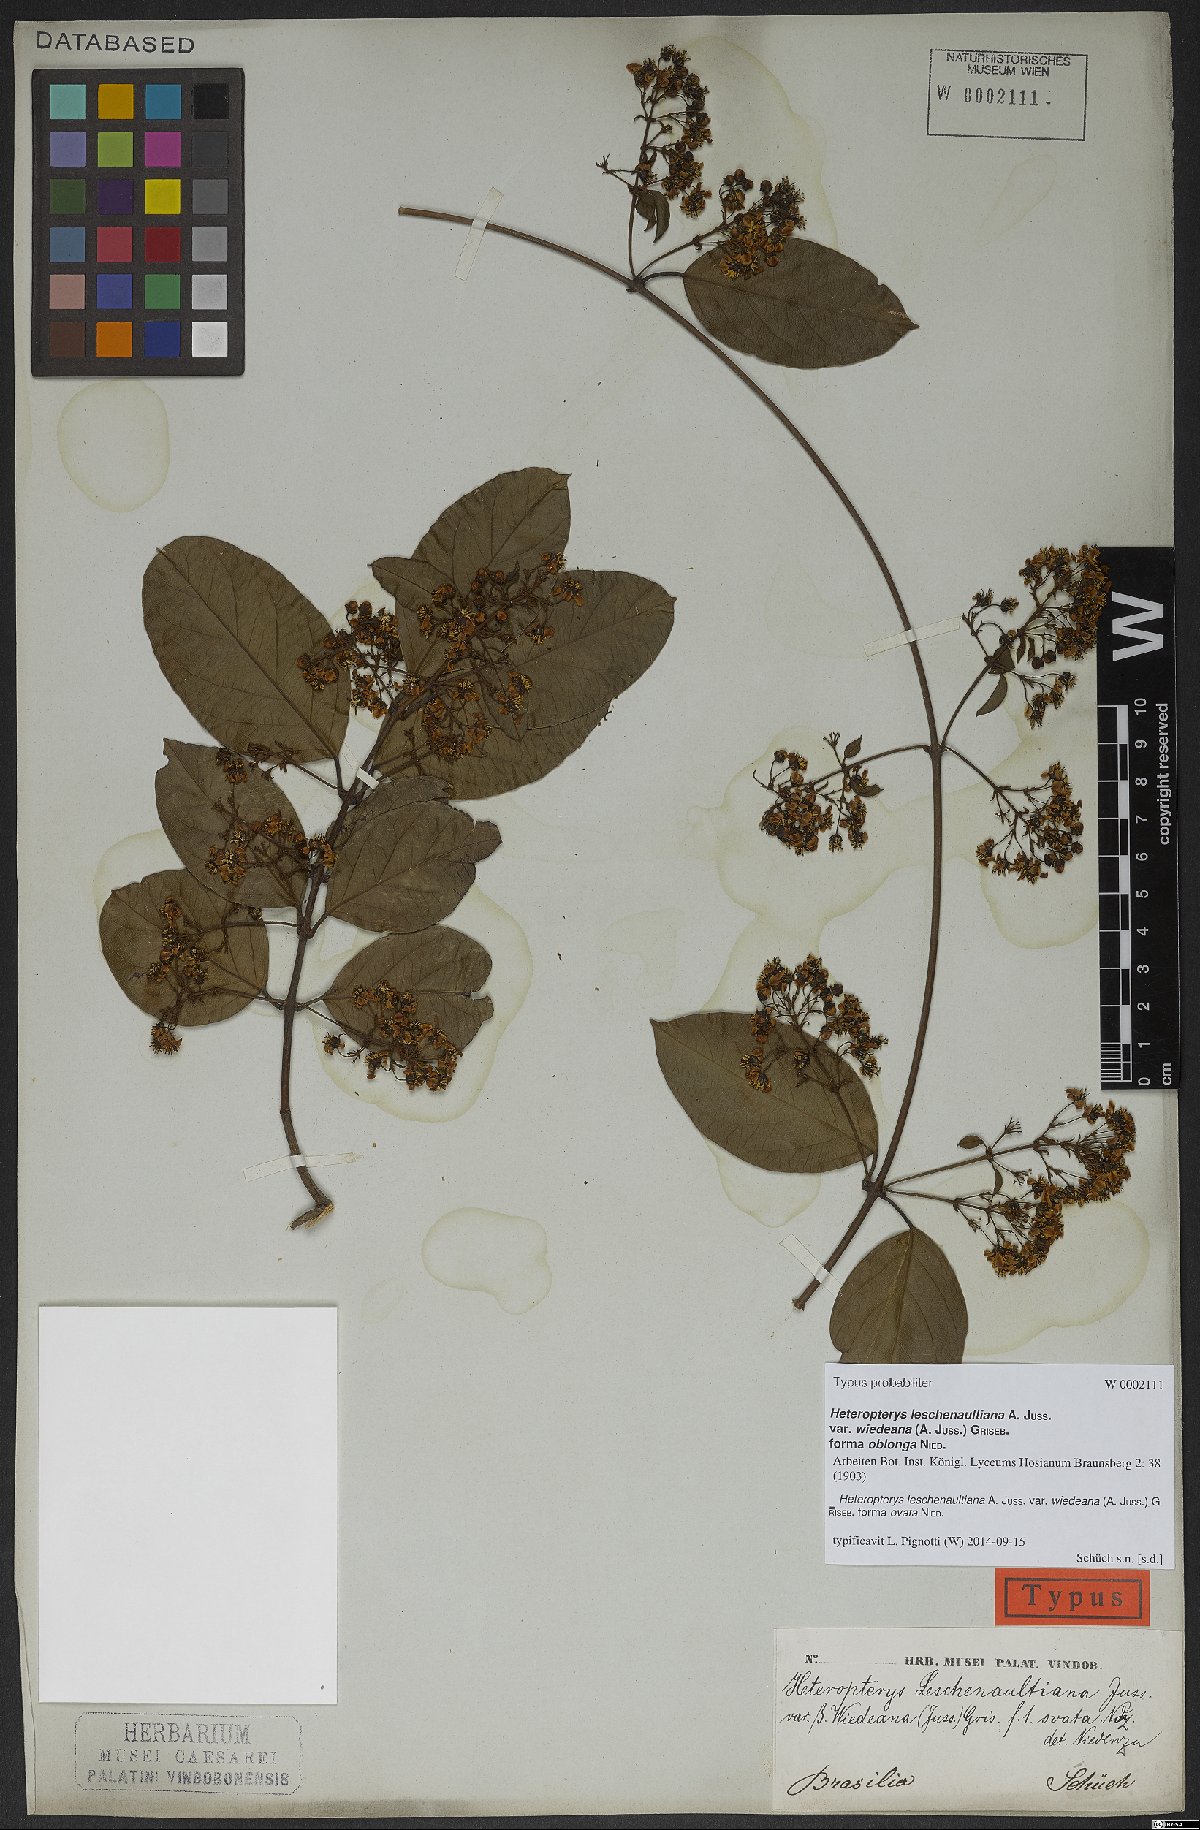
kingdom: Plantae
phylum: Tracheophyta
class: Magnoliopsida
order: Malpighiales
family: Malpighiaceae
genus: Heteropterys
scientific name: Heteropterys leschenaultiana
